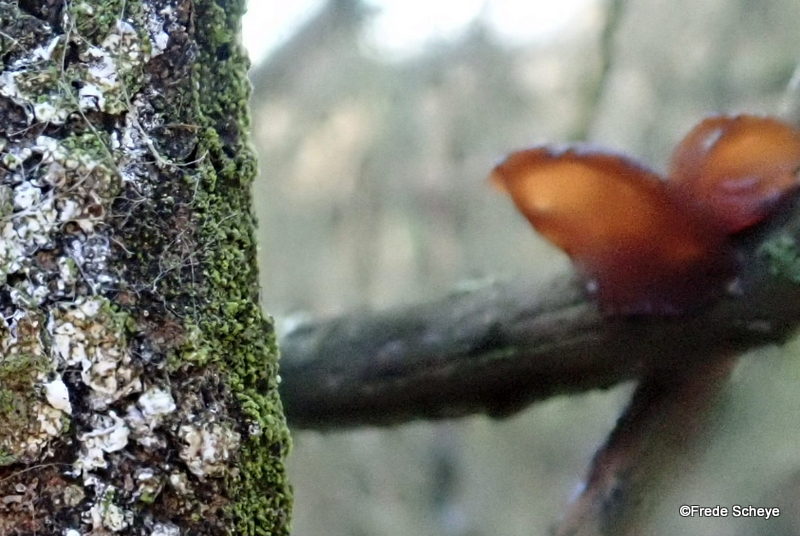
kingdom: Fungi
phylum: Basidiomycota
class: Agaricomycetes
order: Auriculariales
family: Auriculariaceae
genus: Exidia
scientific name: Exidia recisa
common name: pile-bævretop
